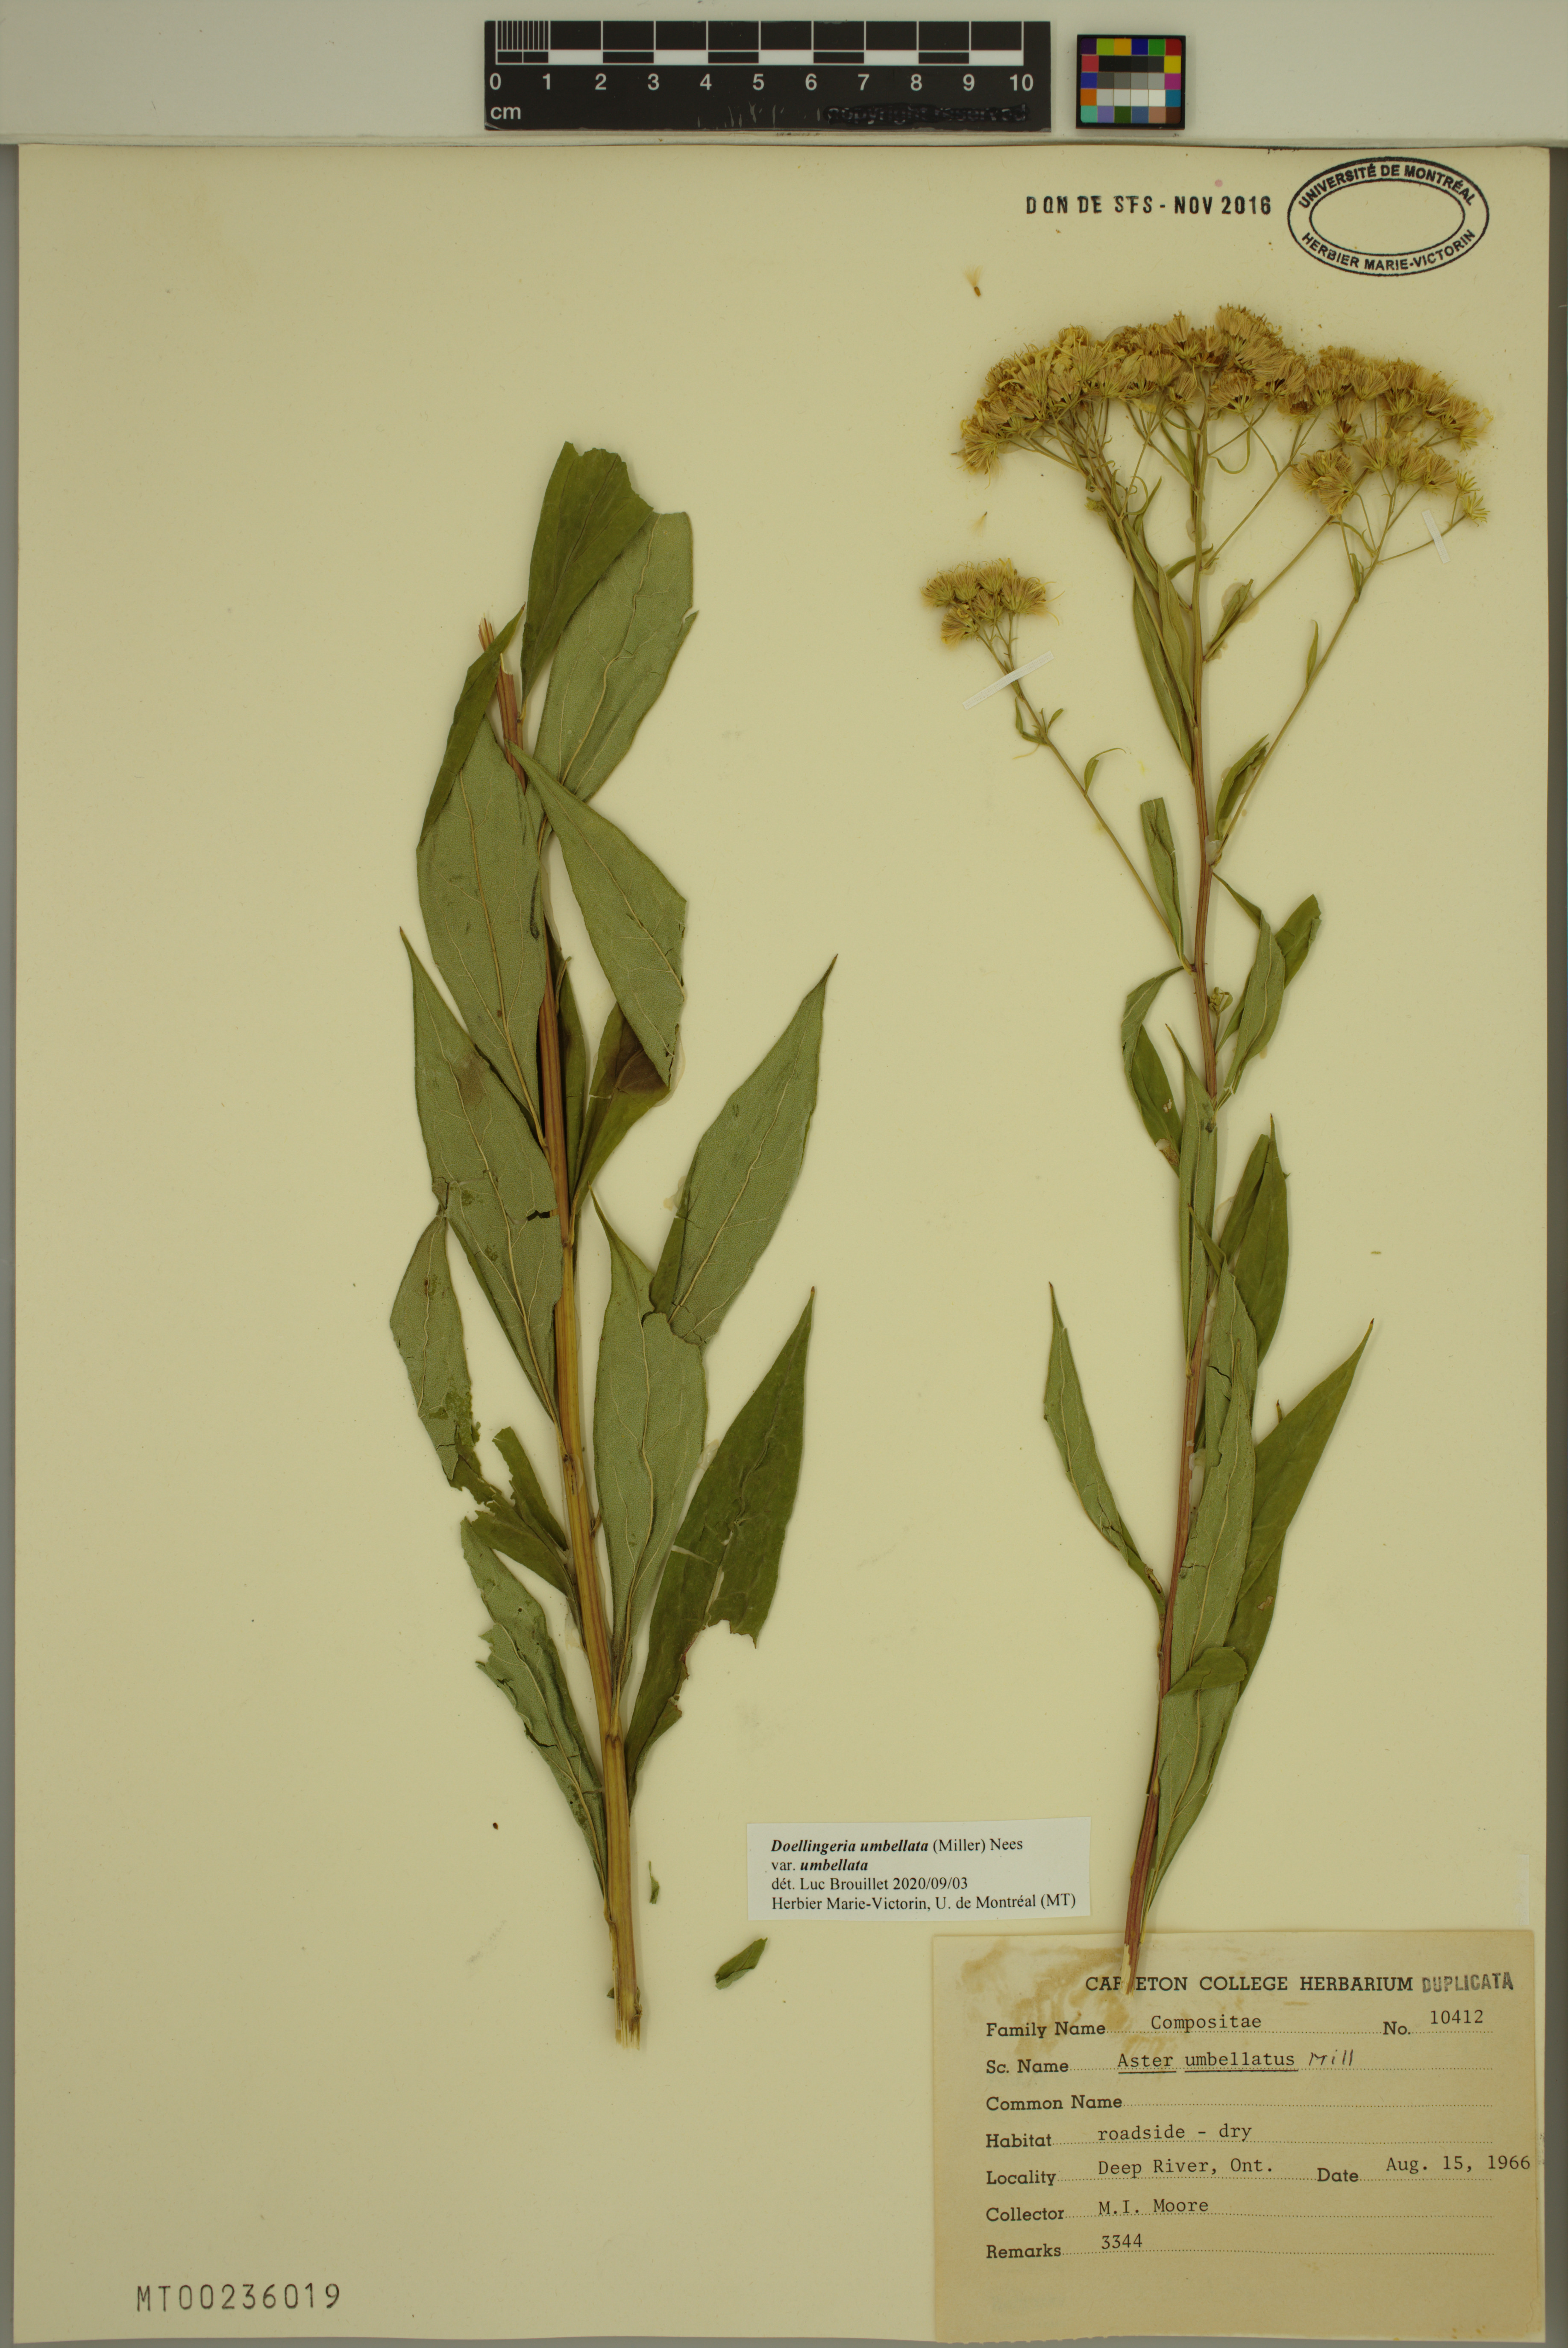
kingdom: Plantae
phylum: Tracheophyta
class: Magnoliopsida
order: Asterales
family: Asteraceae
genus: Doellingeria
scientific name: Doellingeria umbellata
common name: Flat-top white aster
